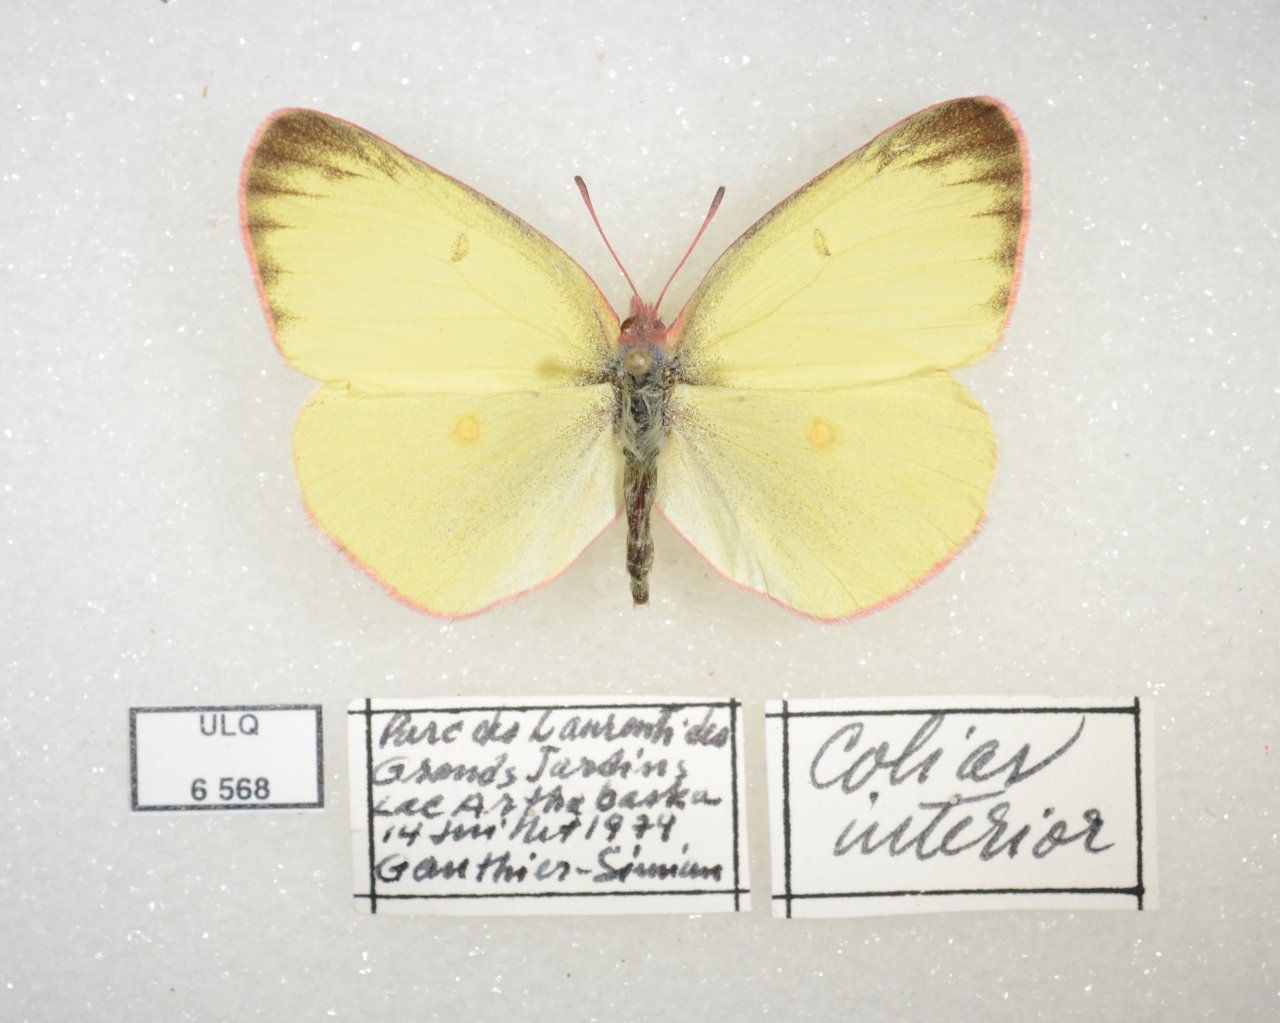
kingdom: Animalia
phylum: Arthropoda
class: Insecta
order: Lepidoptera
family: Pieridae
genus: Colias
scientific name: Colias interior
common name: Pink-edged Sulphur
